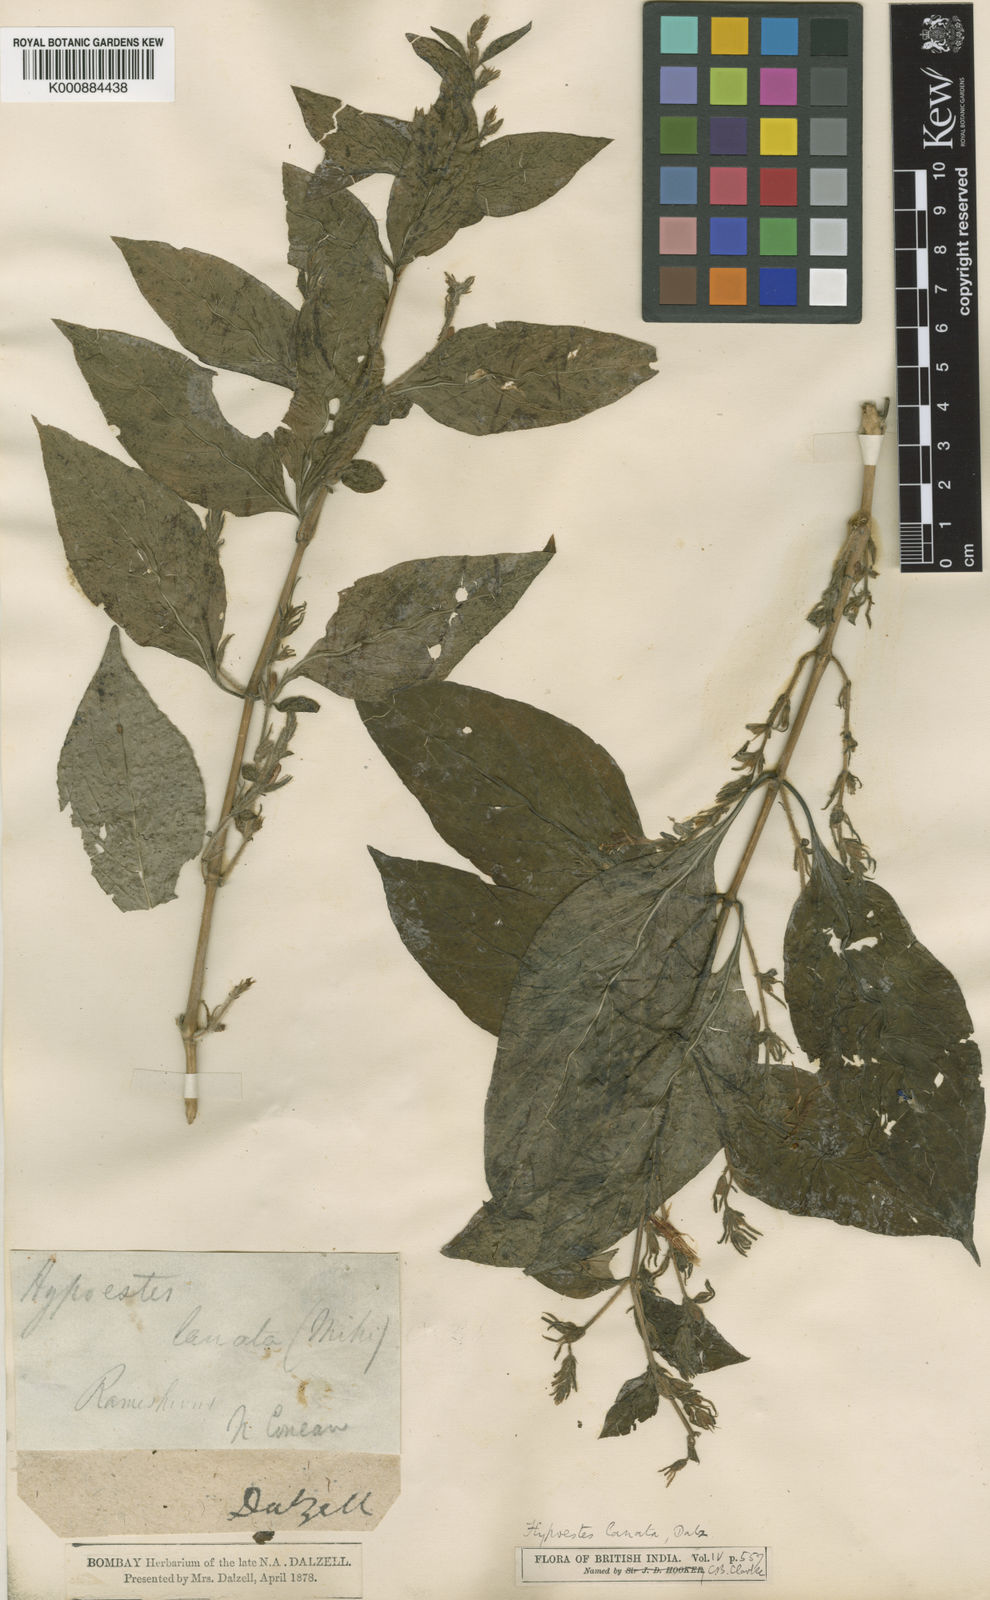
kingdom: Plantae
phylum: Tracheophyta
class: Magnoliopsida
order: Lamiales
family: Acanthaceae
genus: Hypoestes
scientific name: Hypoestes lanata
